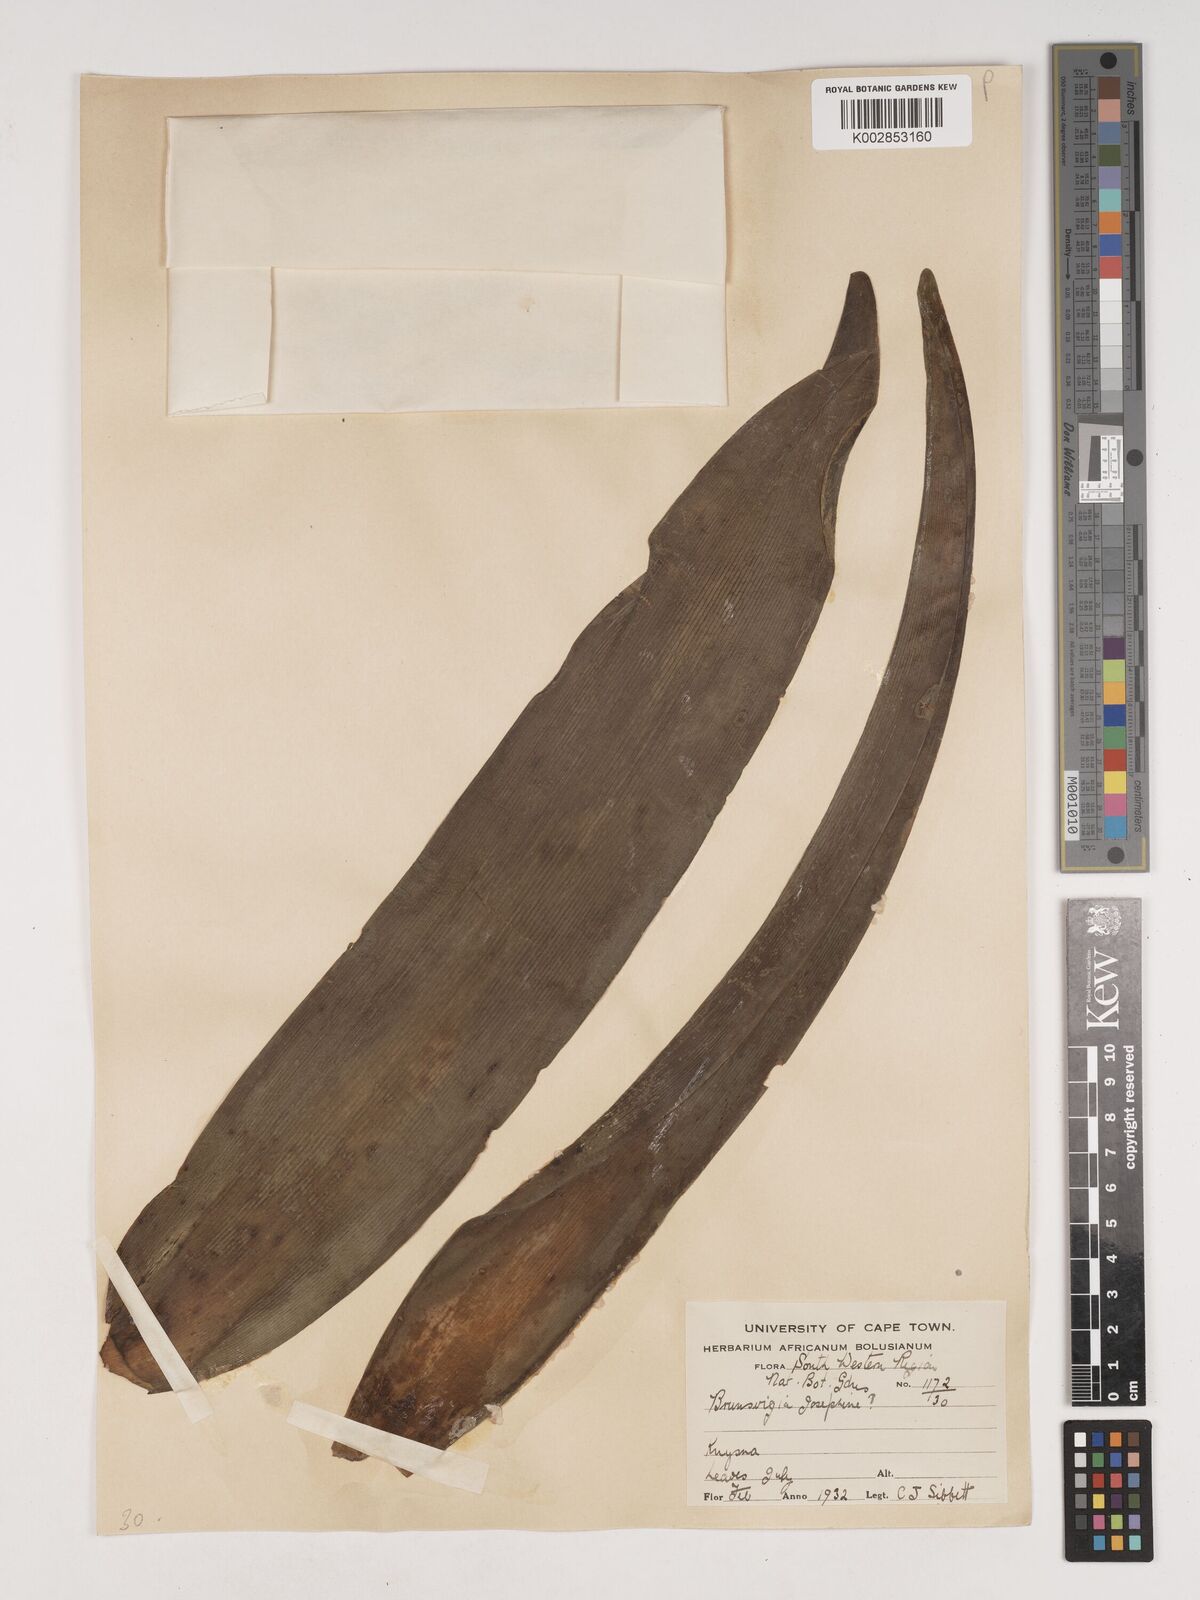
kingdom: Plantae
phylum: Tracheophyta
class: Liliopsida
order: Asparagales
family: Amaryllidaceae
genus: Brunsvigia
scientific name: Brunsvigia josephinae
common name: Josephine's-lily
